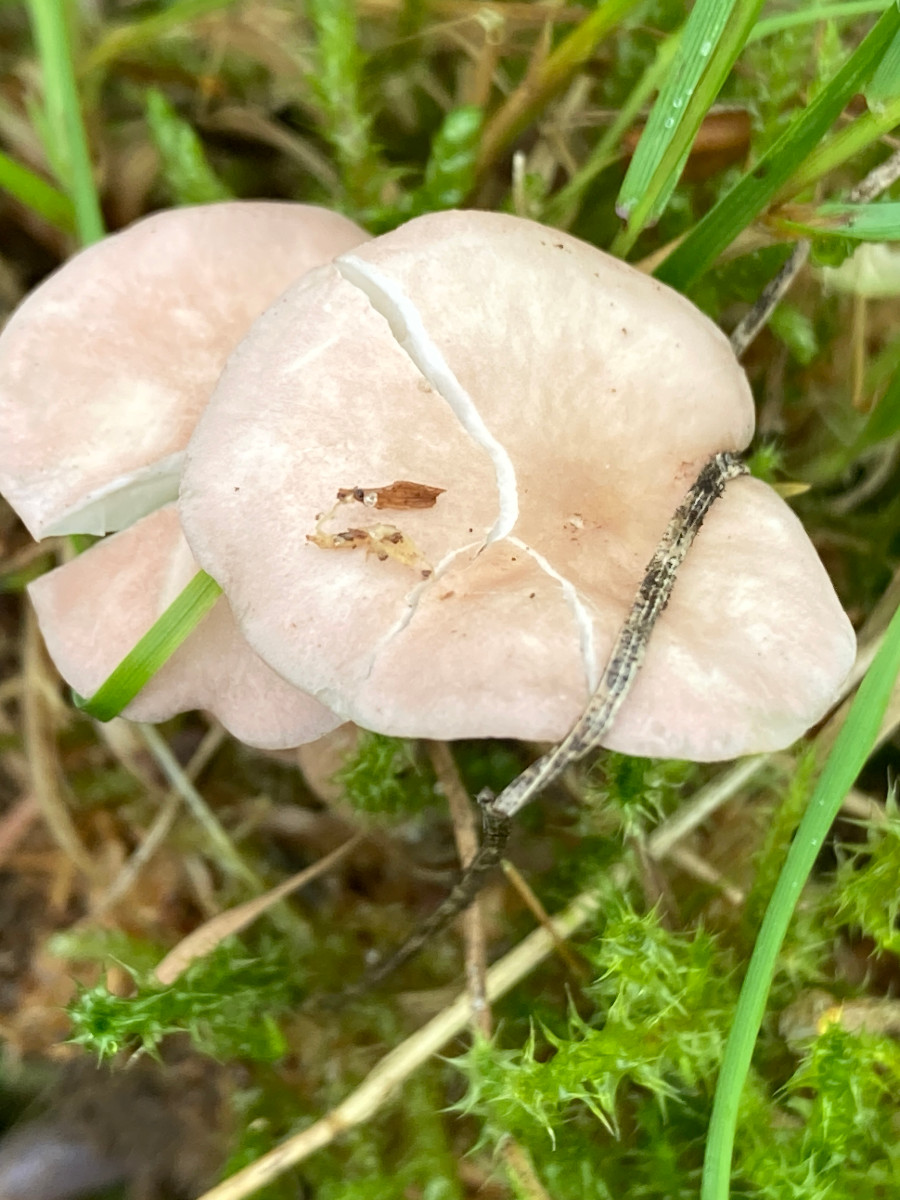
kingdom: Fungi
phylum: Basidiomycota
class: Agaricomycetes
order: Agaricales
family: Lyophyllaceae
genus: Calocybe
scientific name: Calocybe carnea
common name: rosa fagerhat
